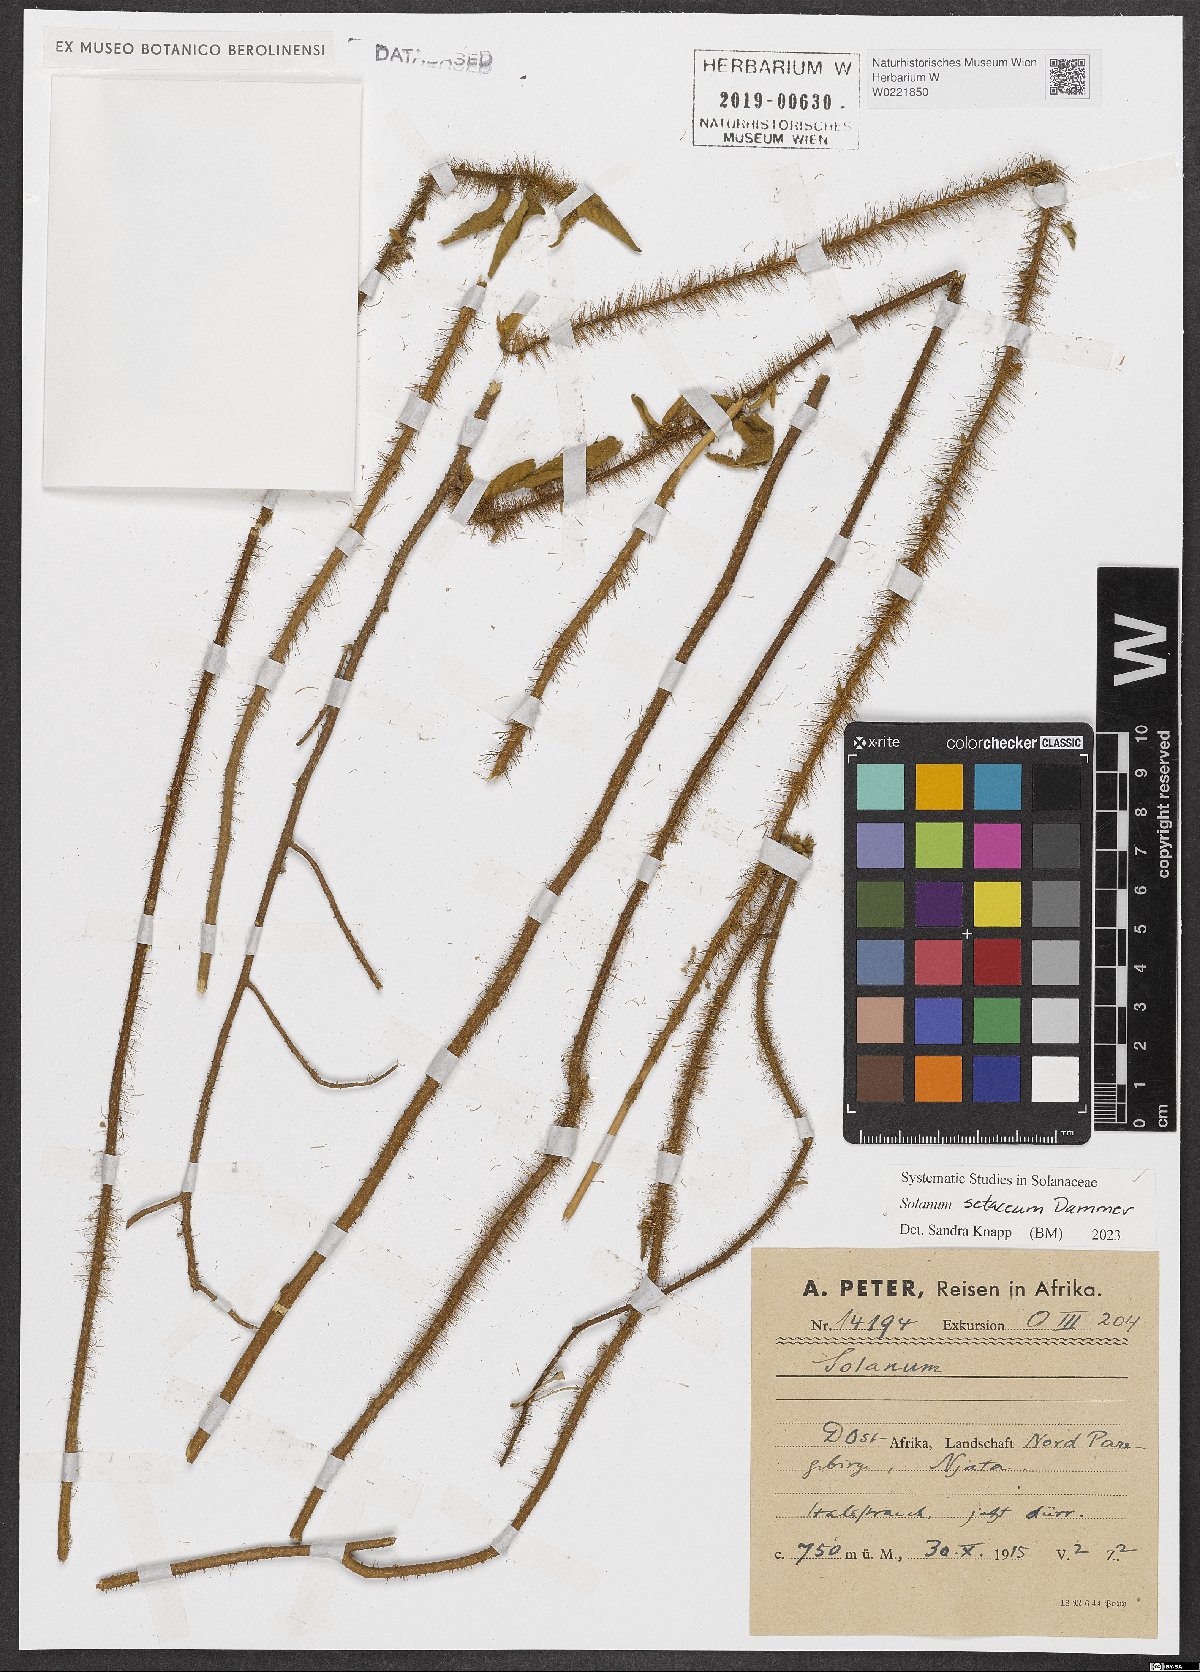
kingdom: Plantae
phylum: Tracheophyta
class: Magnoliopsida
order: Solanales
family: Solanaceae
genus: Solanum
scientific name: Solanum setaceum
